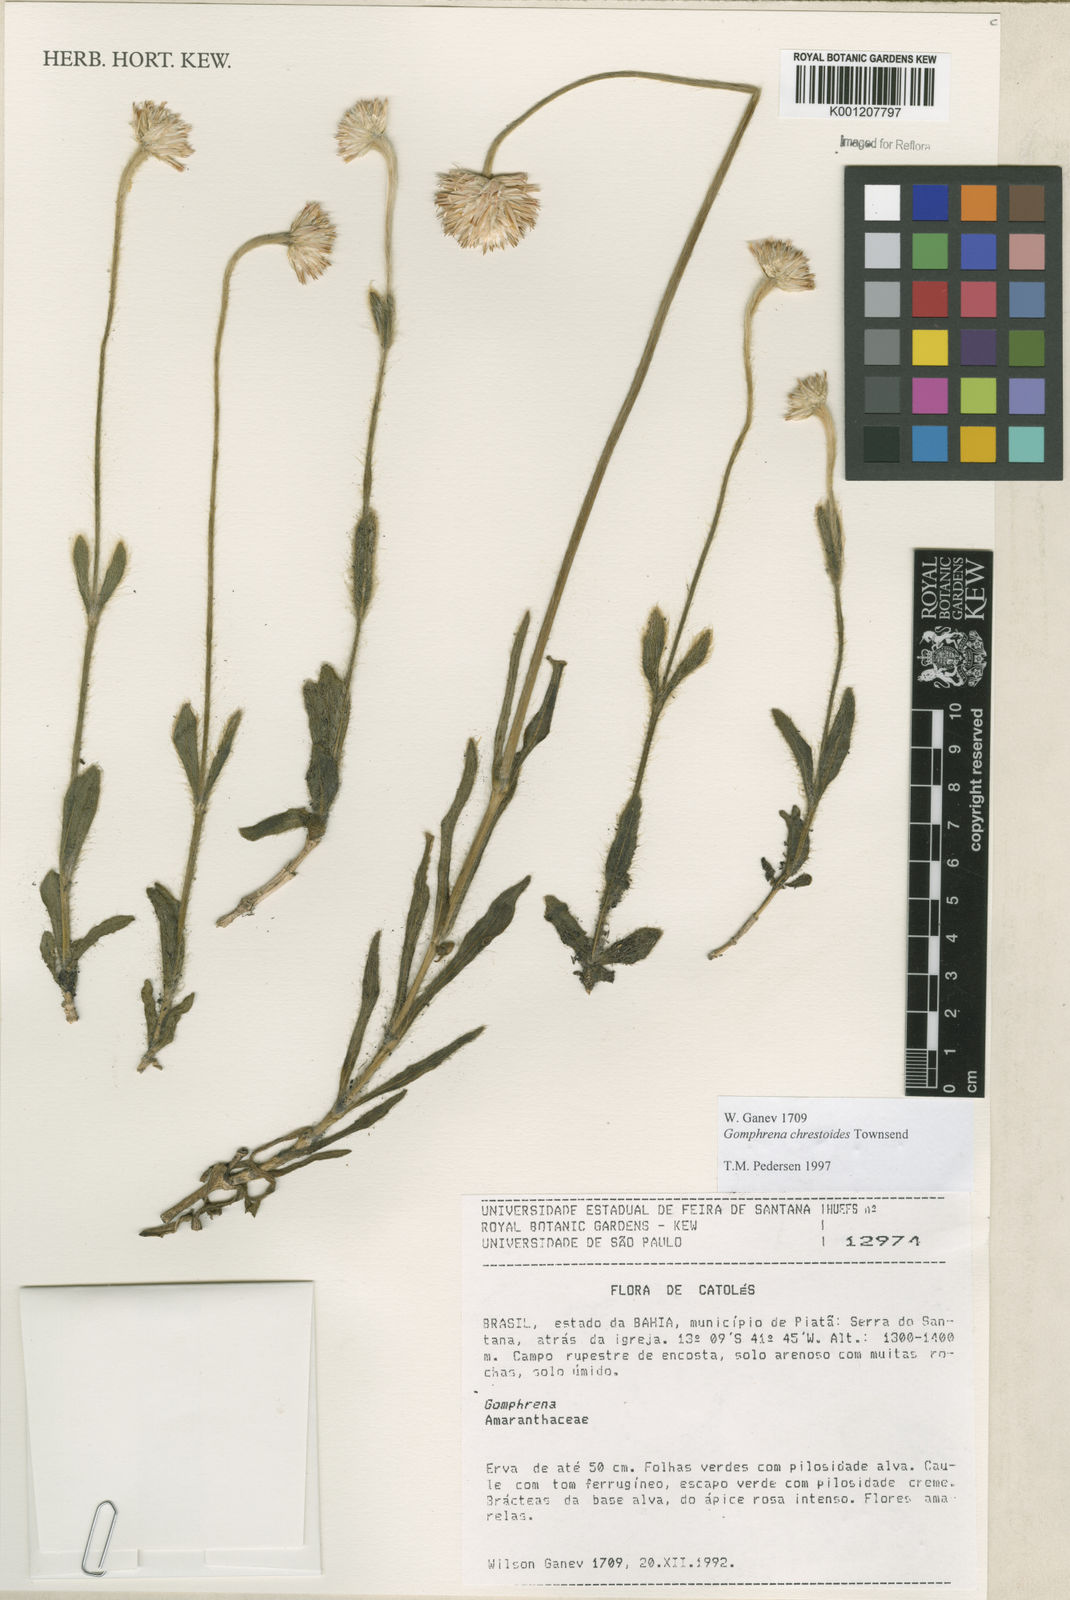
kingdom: Plantae
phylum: Tracheophyta
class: Magnoliopsida
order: Caryophyllales
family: Amaranthaceae
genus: Gomphrena
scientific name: Gomphrena chrestoides
